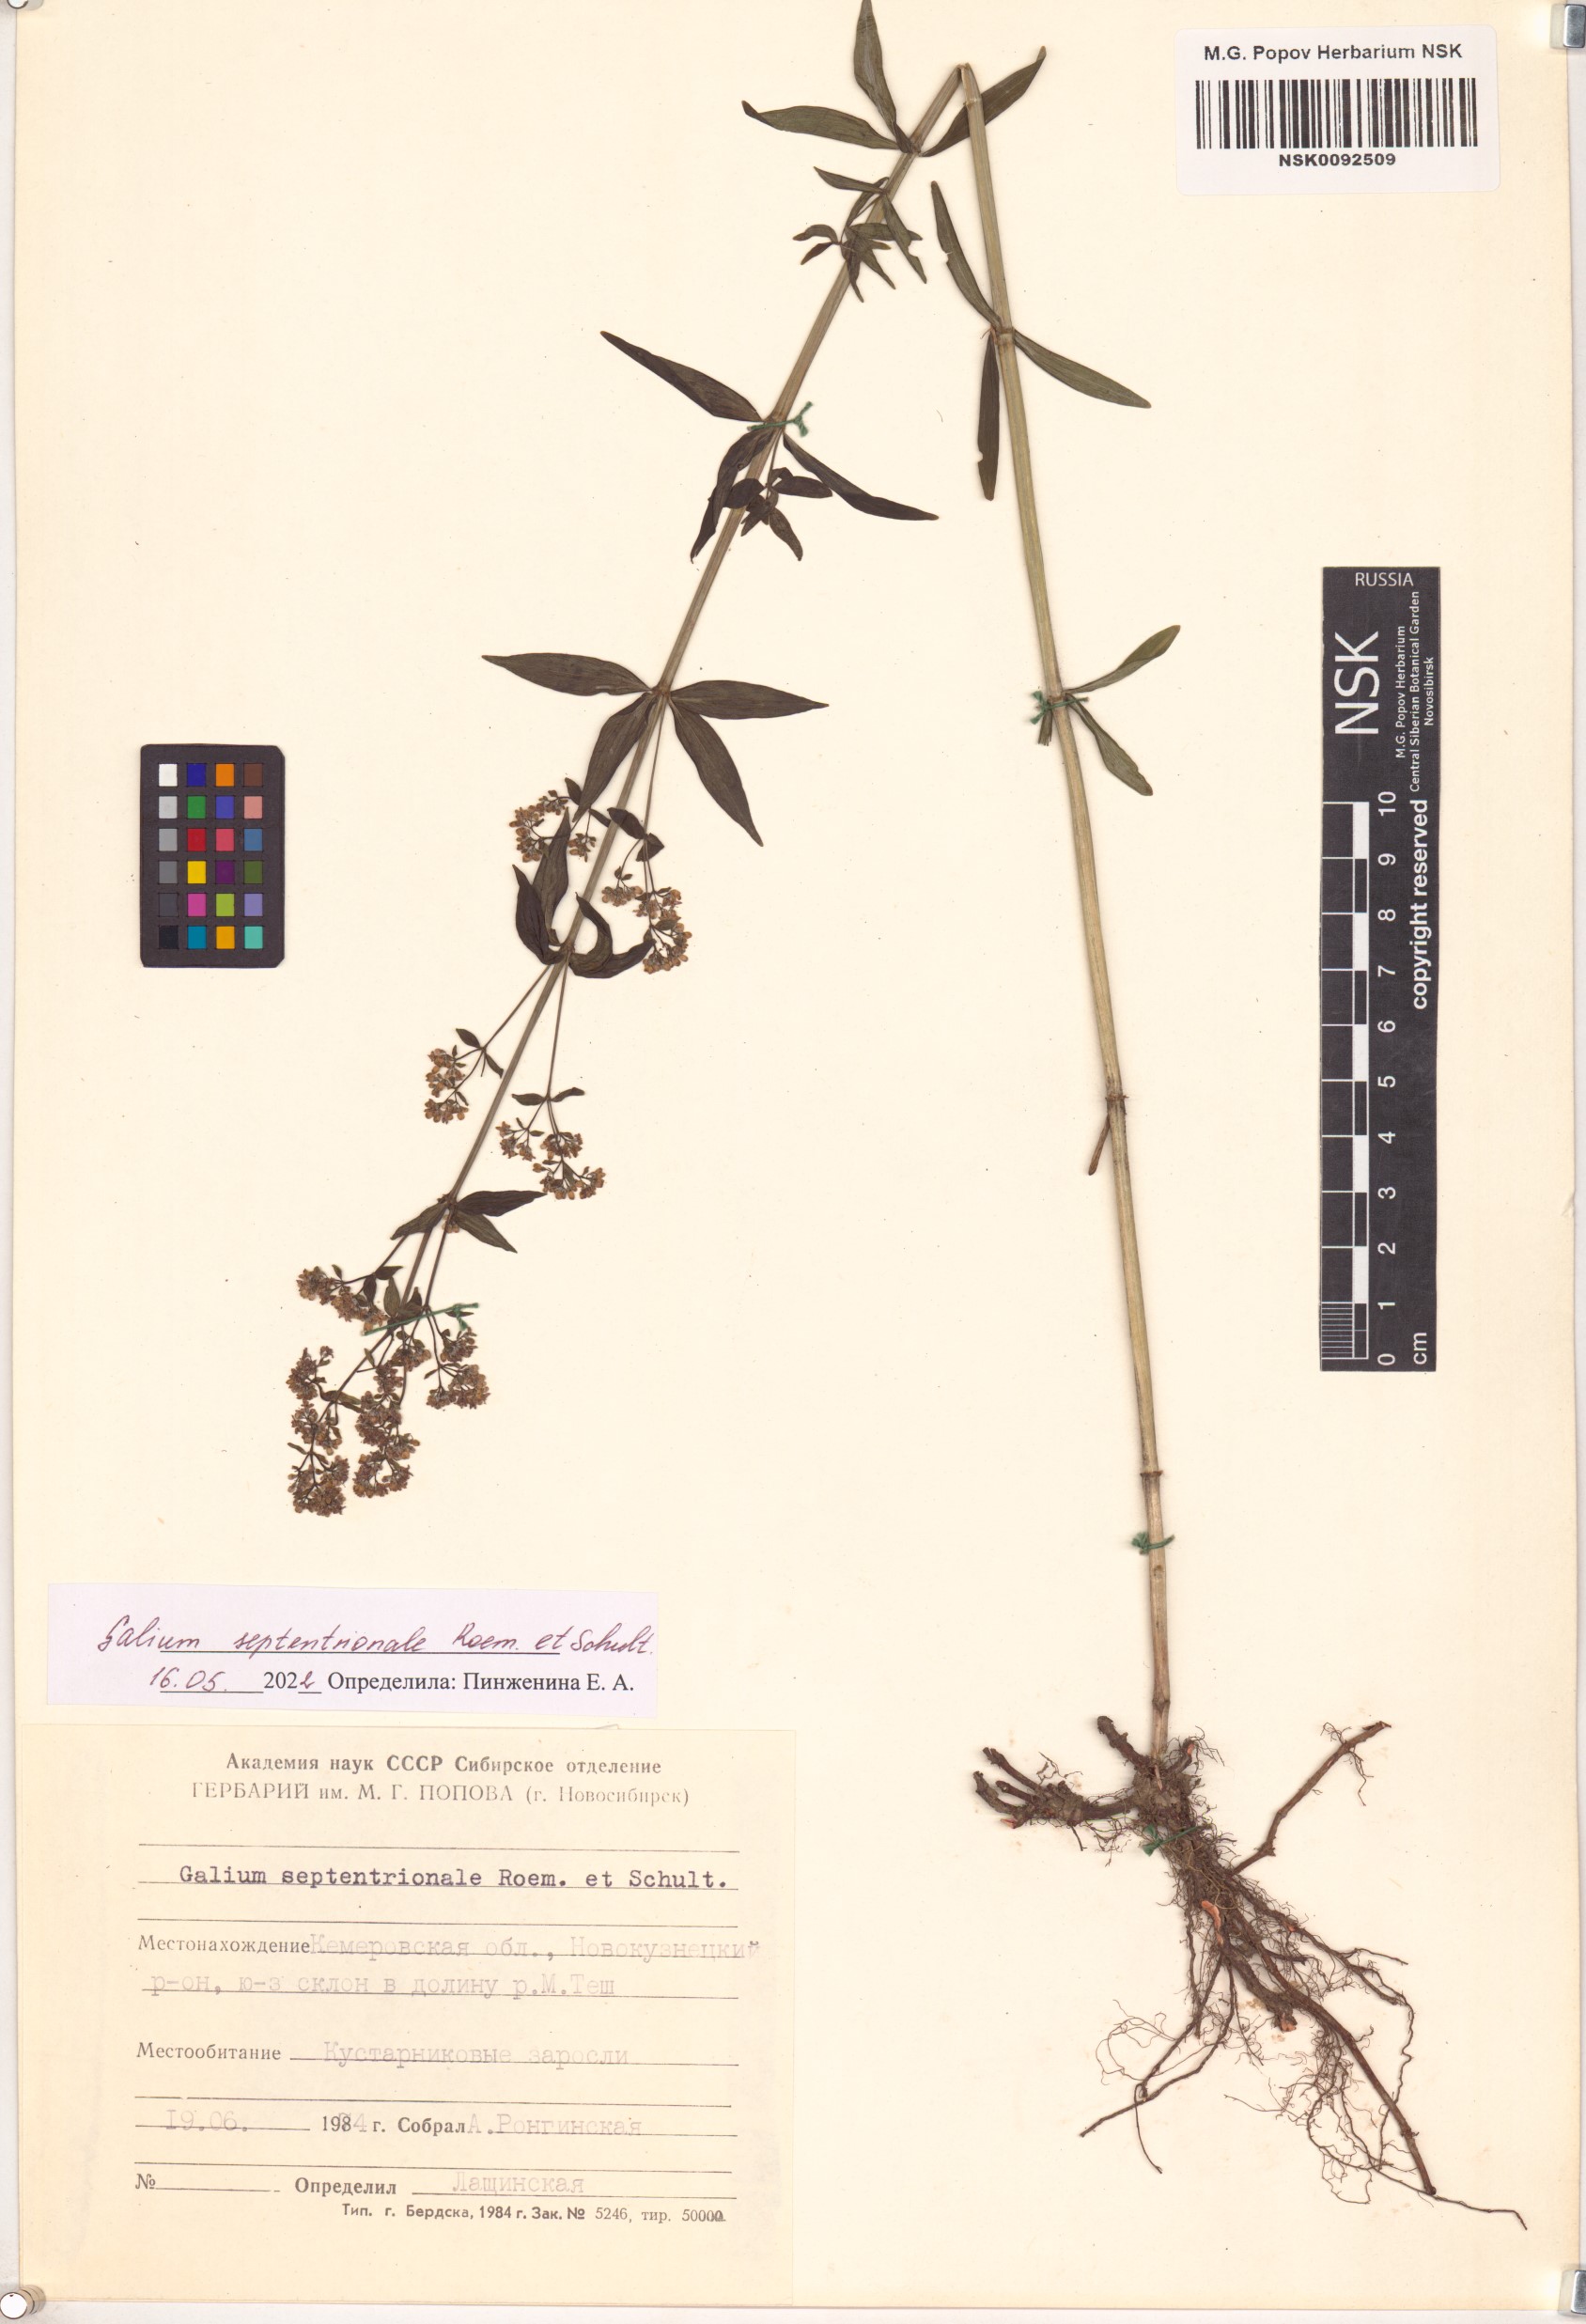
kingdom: Plantae
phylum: Tracheophyta
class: Magnoliopsida
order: Gentianales
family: Rubiaceae
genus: Galium
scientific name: Galium boreale
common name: Northern bedstraw
